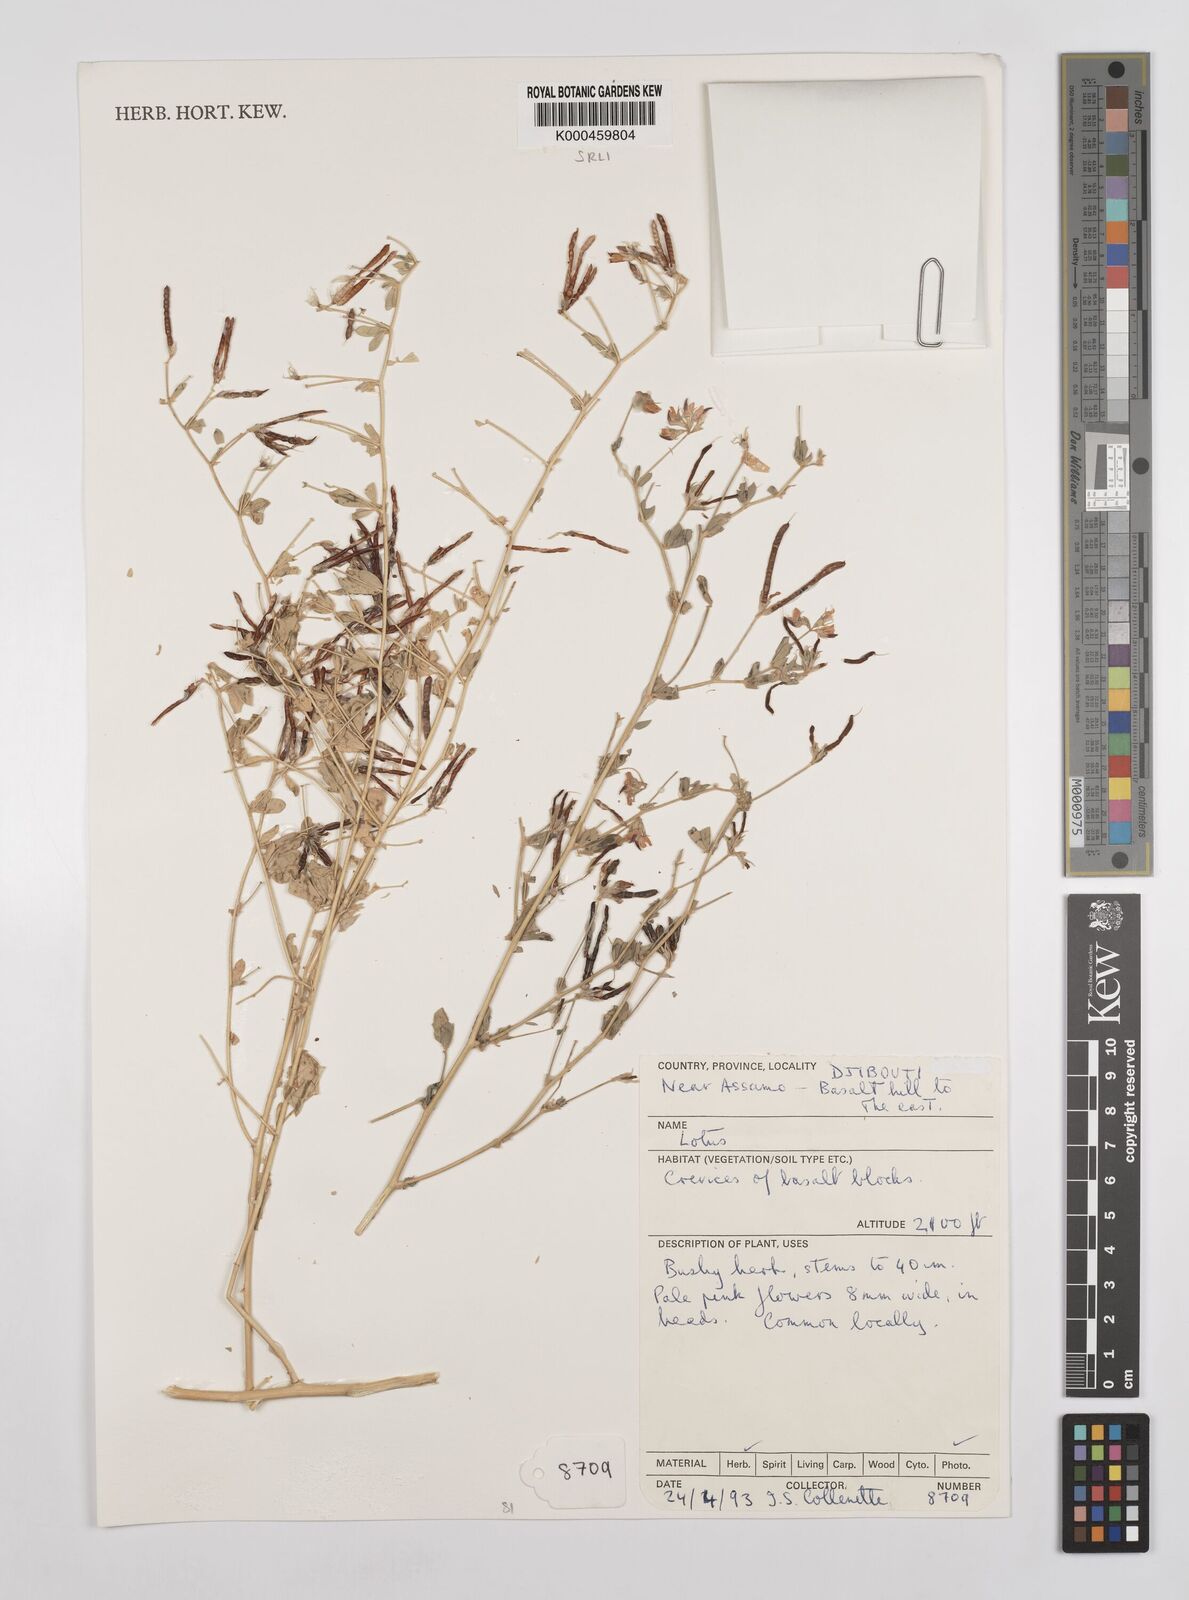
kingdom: Plantae
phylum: Tracheophyta
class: Magnoliopsida
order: Fabales
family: Fabaceae
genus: Lotus
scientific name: Lotus arabicus
